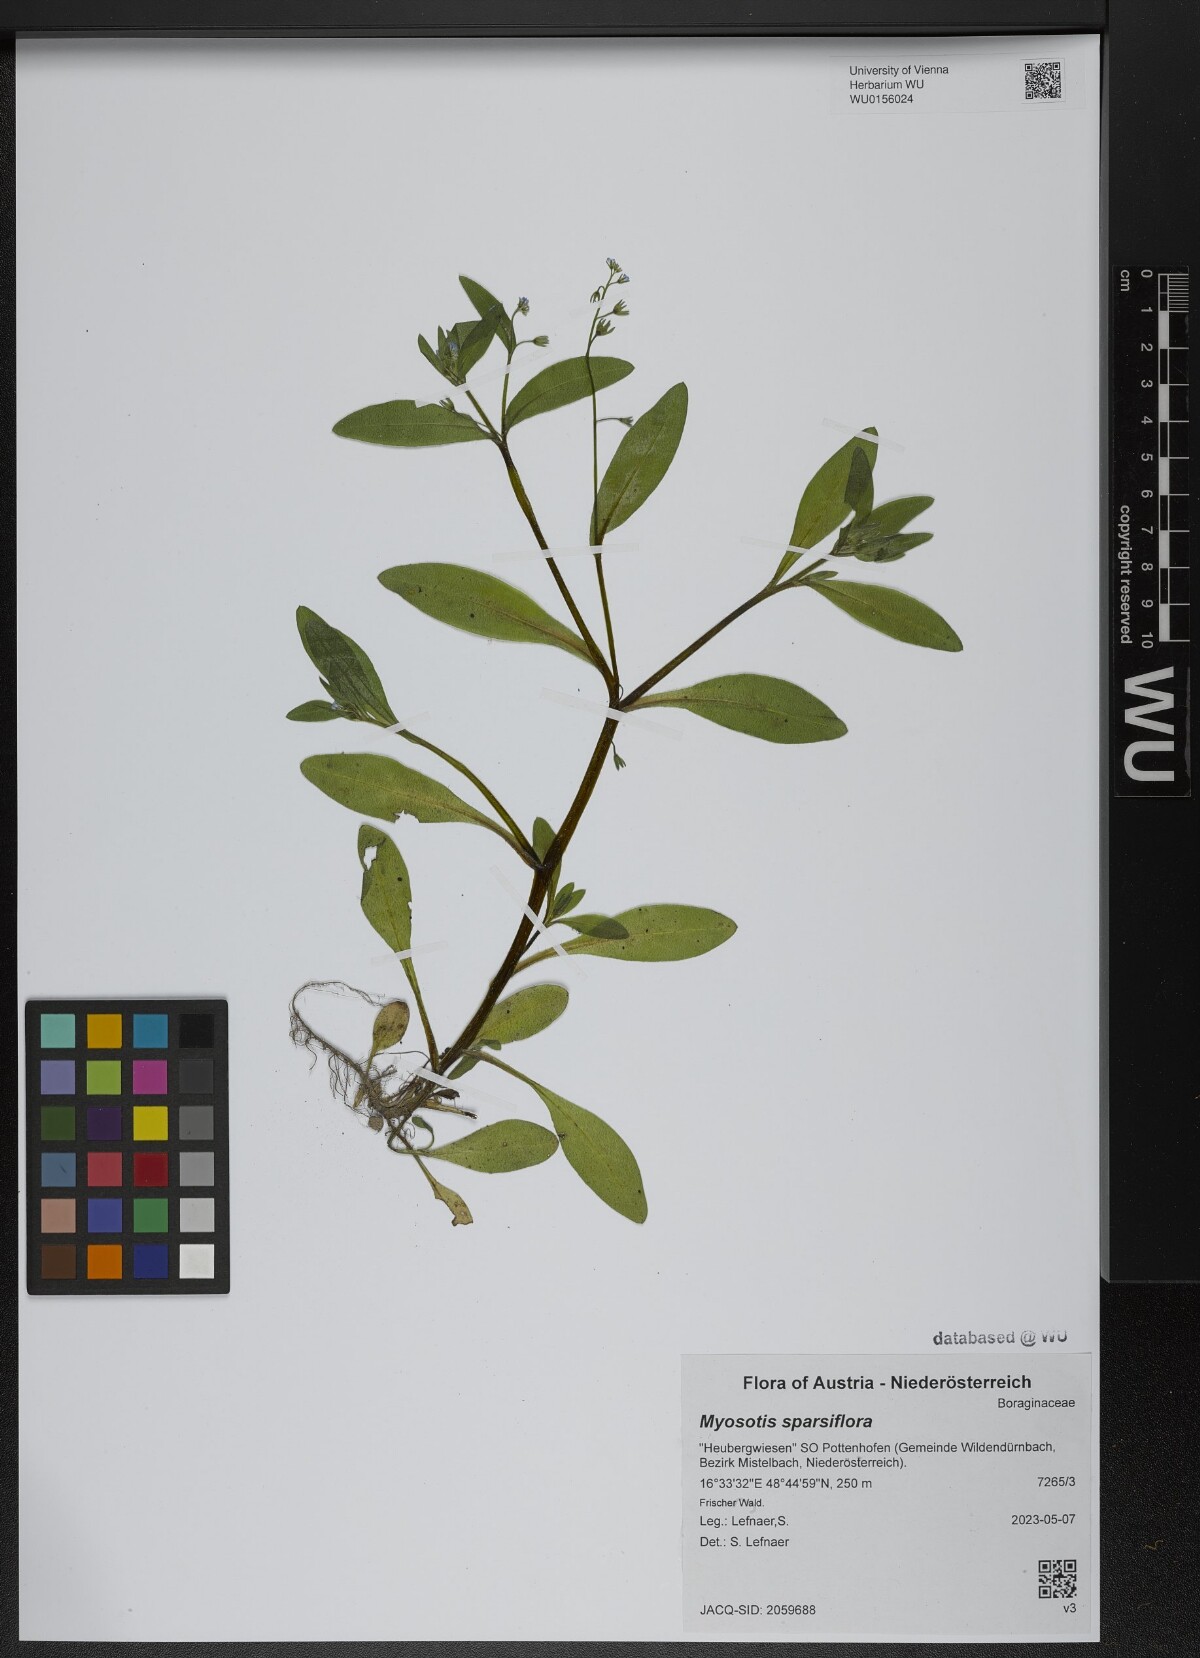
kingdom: Plantae
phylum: Tracheophyta
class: Magnoliopsida
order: Boraginales
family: Boraginaceae
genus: Myosotis
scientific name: Myosotis sparsiflora
